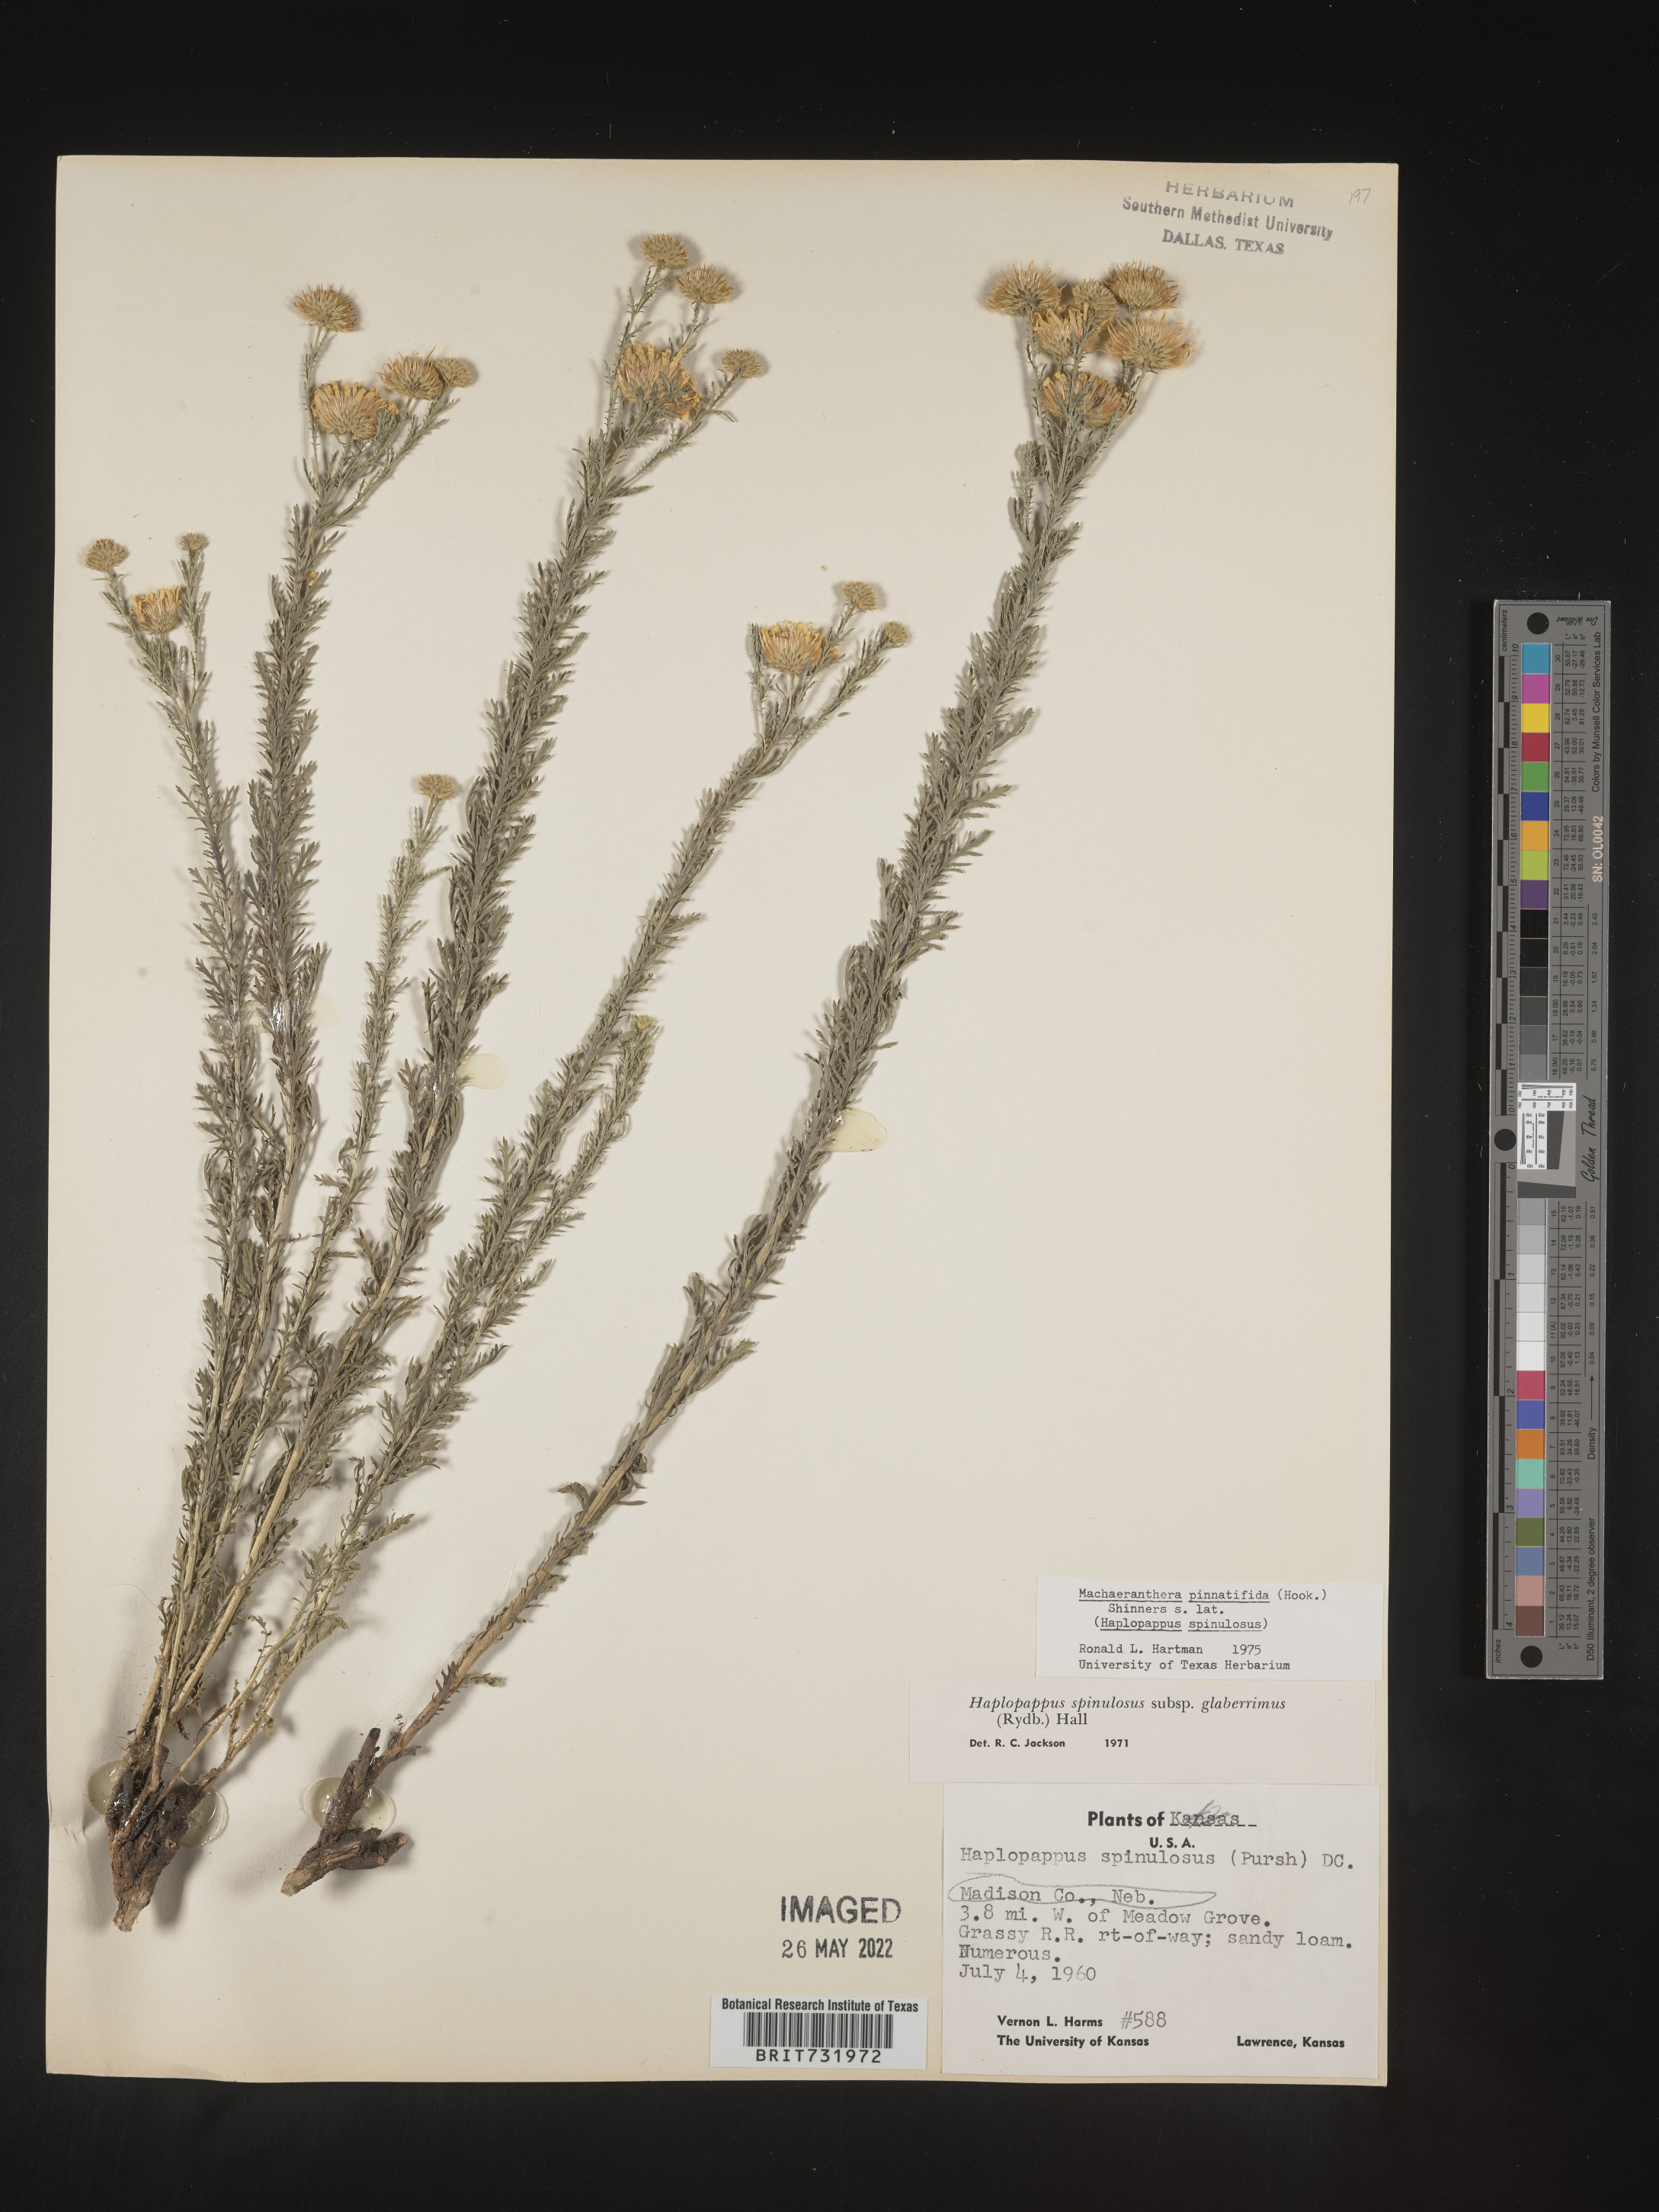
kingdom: Plantae
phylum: Tracheophyta
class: Magnoliopsida
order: Asterales
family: Asteraceae
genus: Xanthisma
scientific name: Xanthisma spinulosum
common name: Spiny goldenweed
